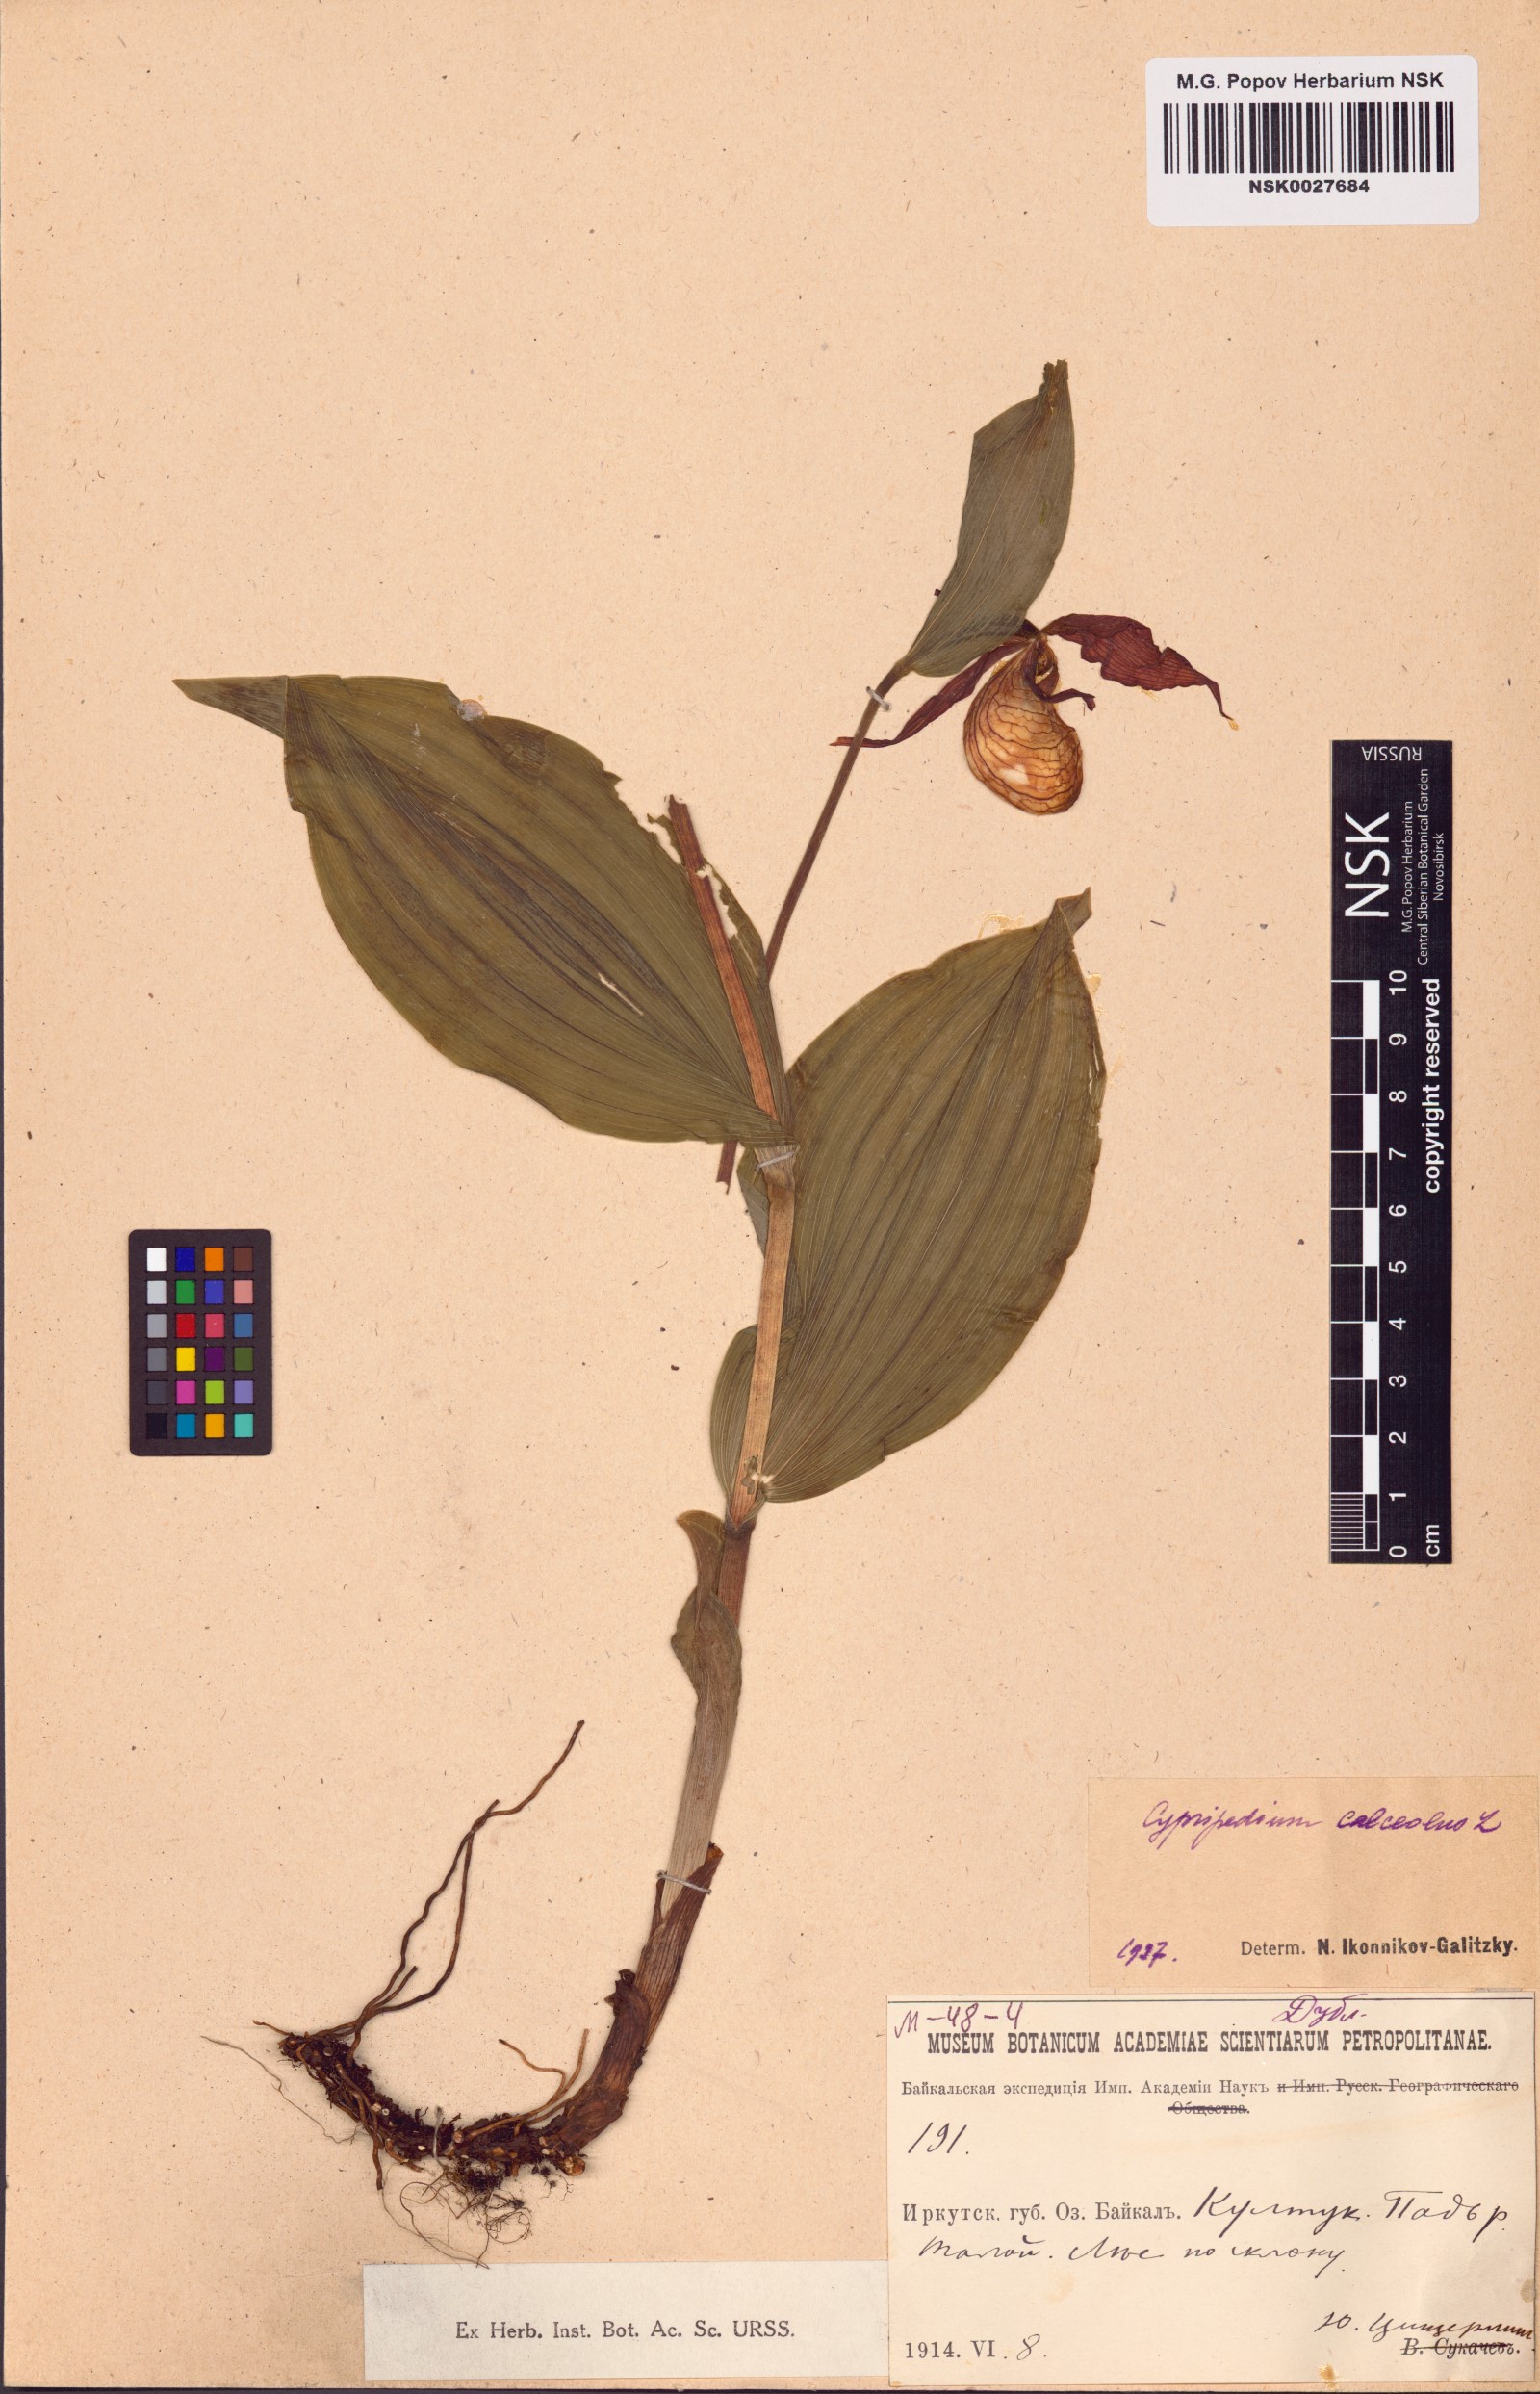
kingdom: Plantae
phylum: Tracheophyta
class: Liliopsida
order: Asparagales
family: Orchidaceae
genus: Cypripedium
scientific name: Cypripedium calceolus
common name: Lady's-slipper
